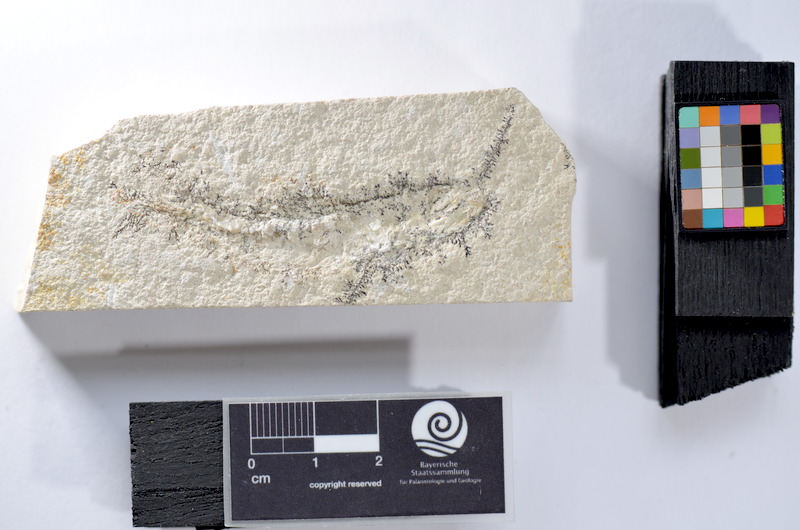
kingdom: Animalia
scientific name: Animalia
